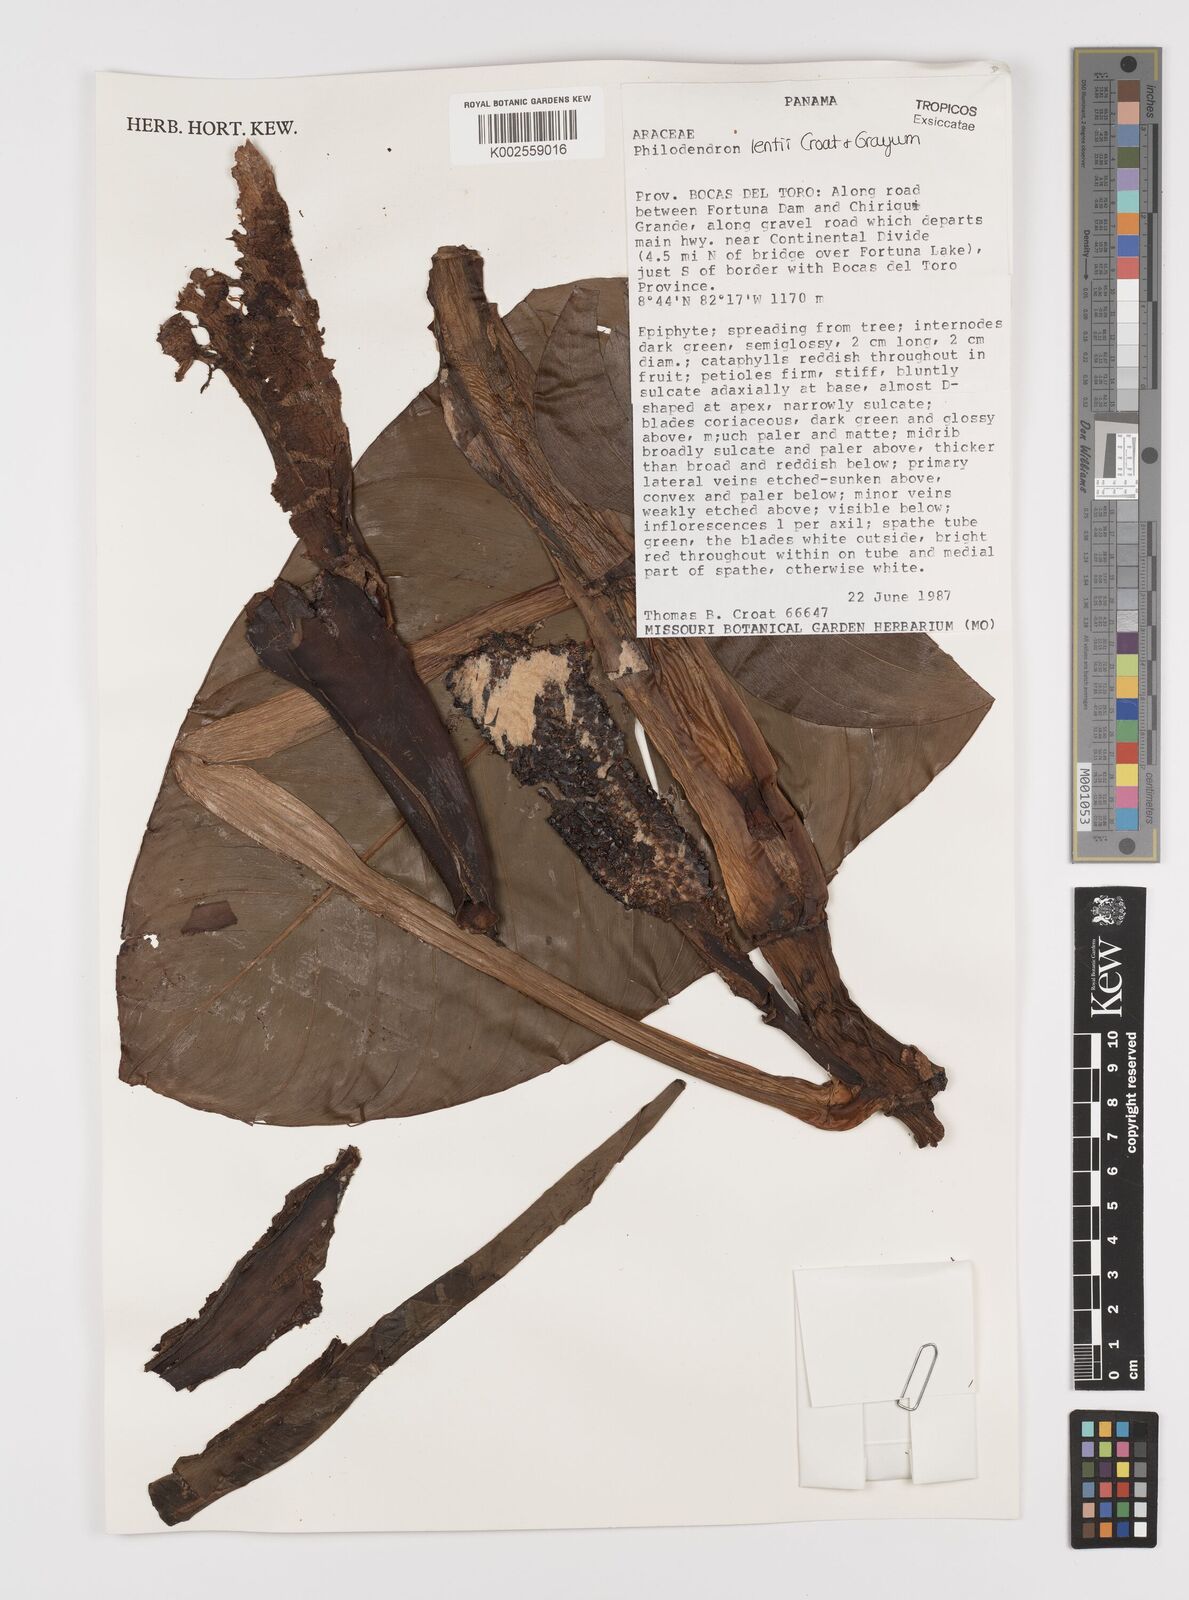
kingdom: Plantae
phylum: Tracheophyta
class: Liliopsida
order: Alismatales
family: Araceae
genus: Philodendron
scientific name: Philodendron lentii
